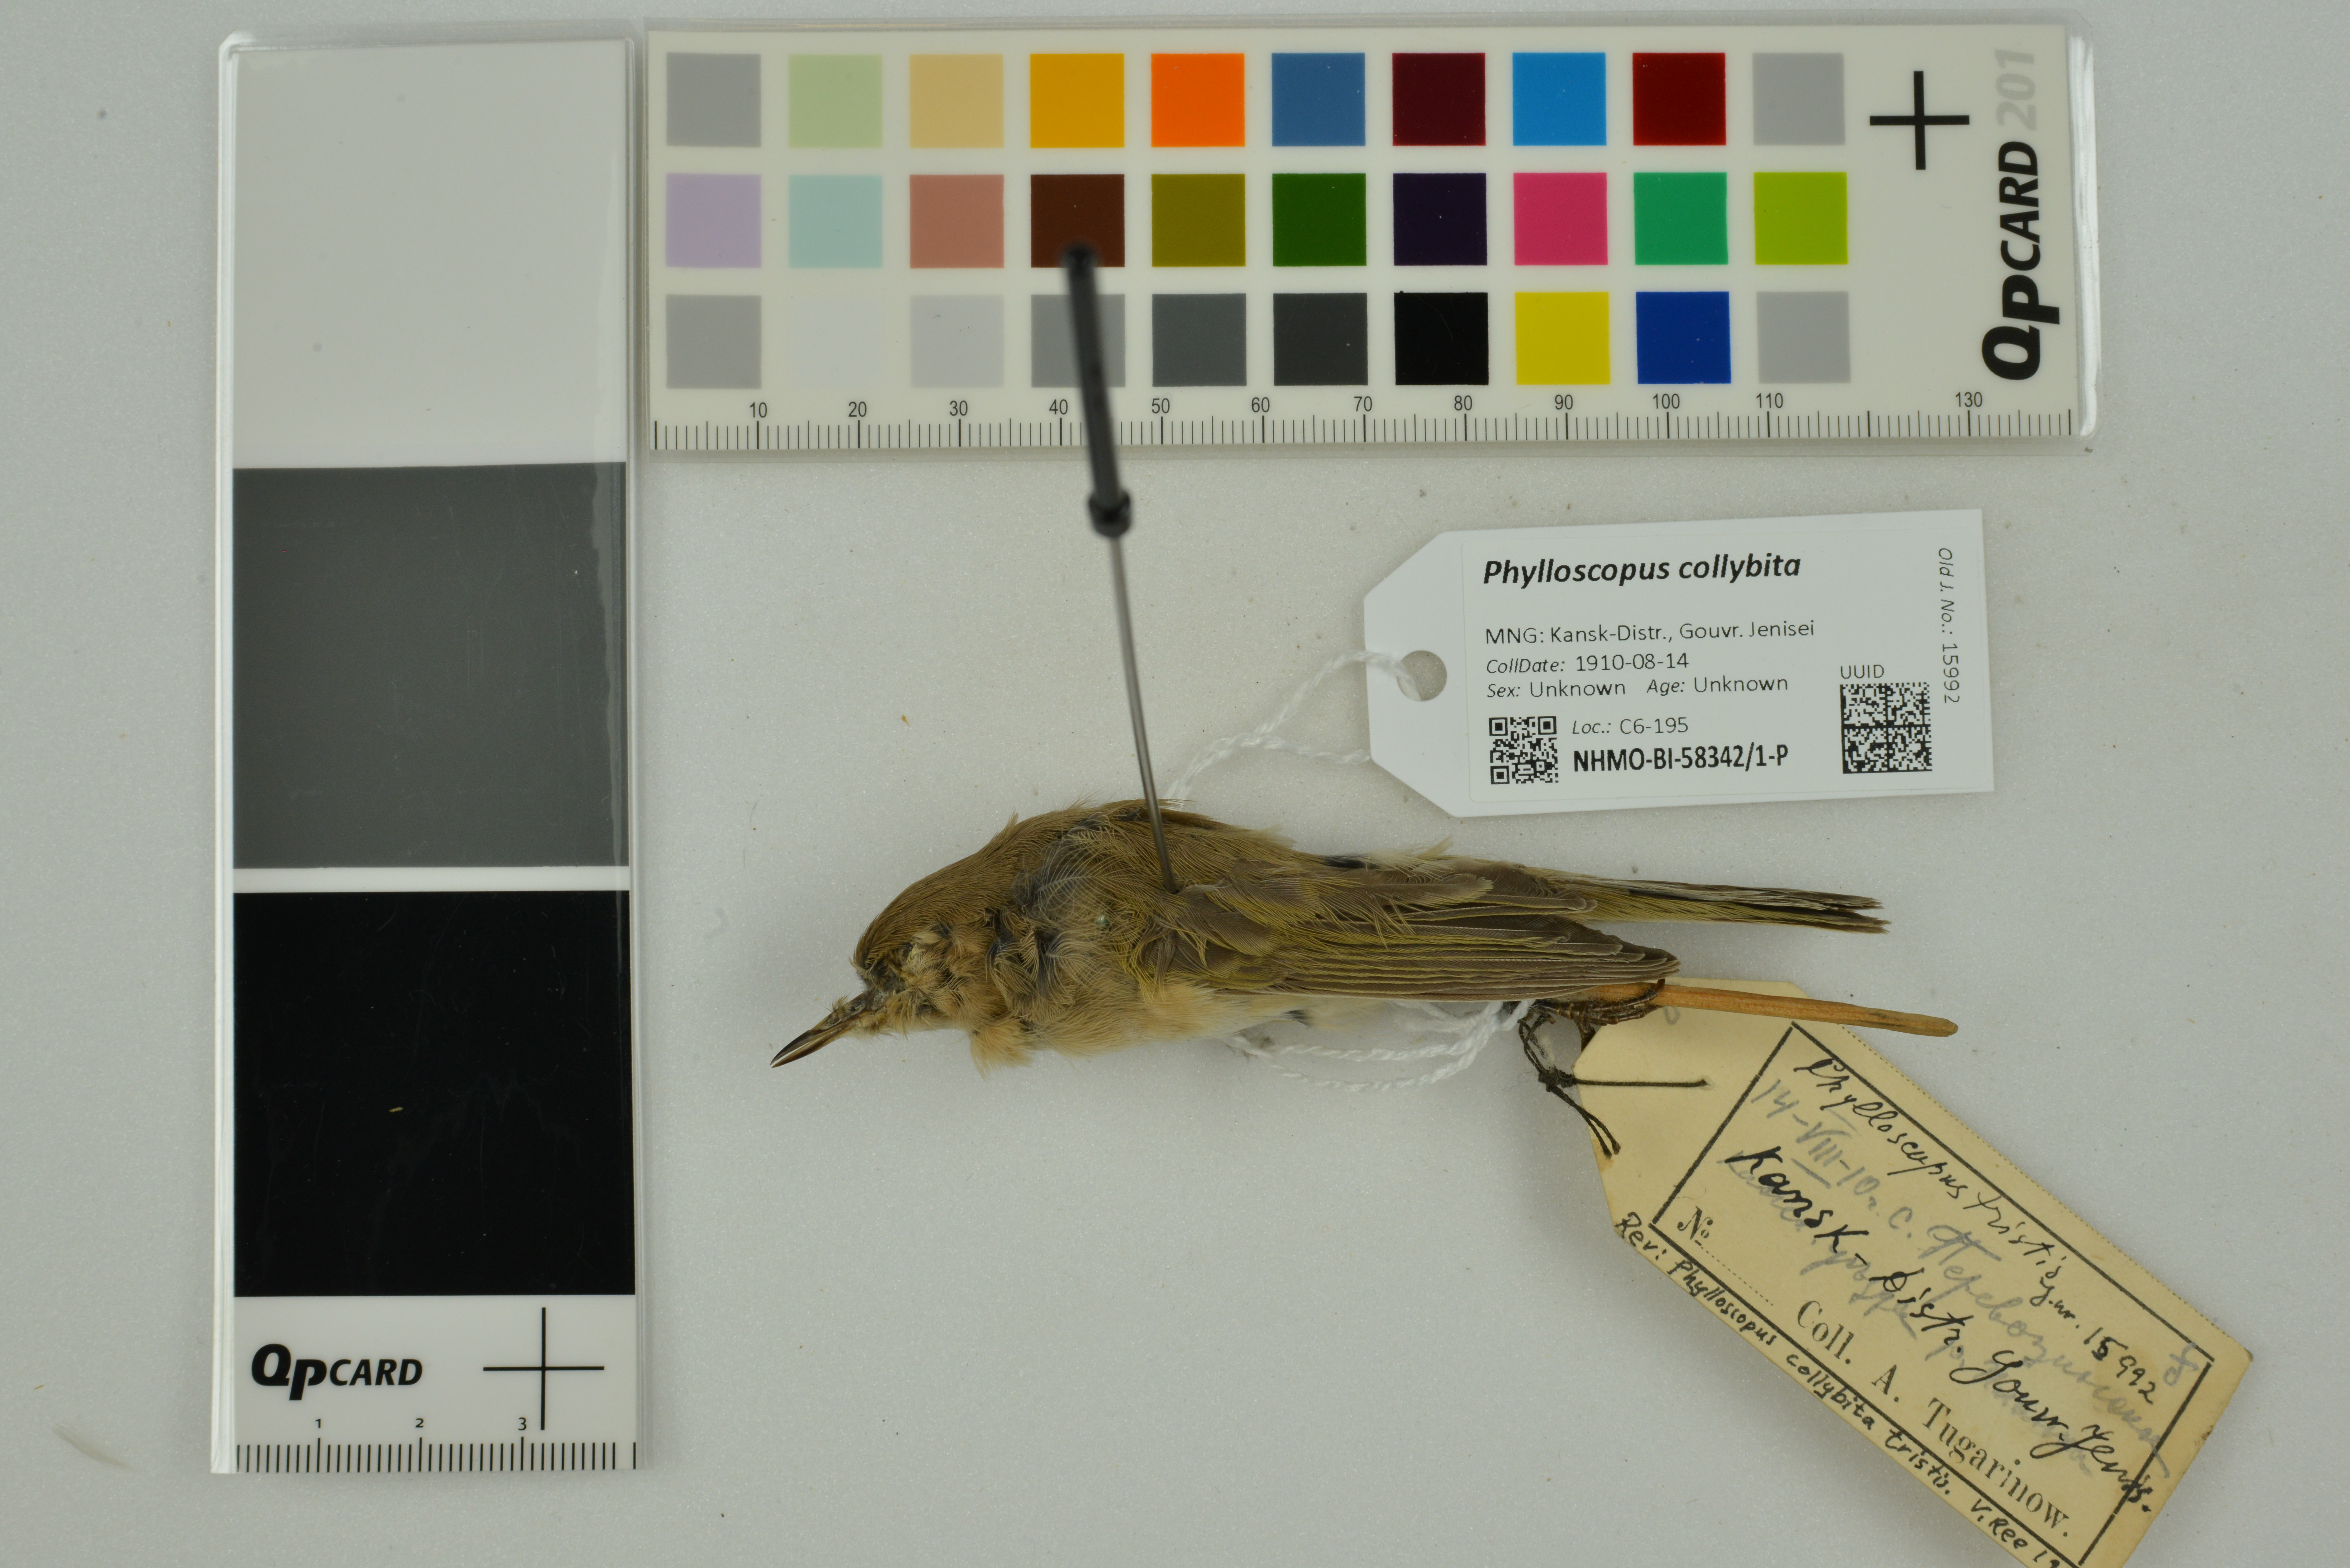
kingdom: Animalia
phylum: Chordata
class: Aves
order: Passeriformes
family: Phylloscopidae
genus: Phylloscopus
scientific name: Phylloscopus collybita
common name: Common chiffchaff
